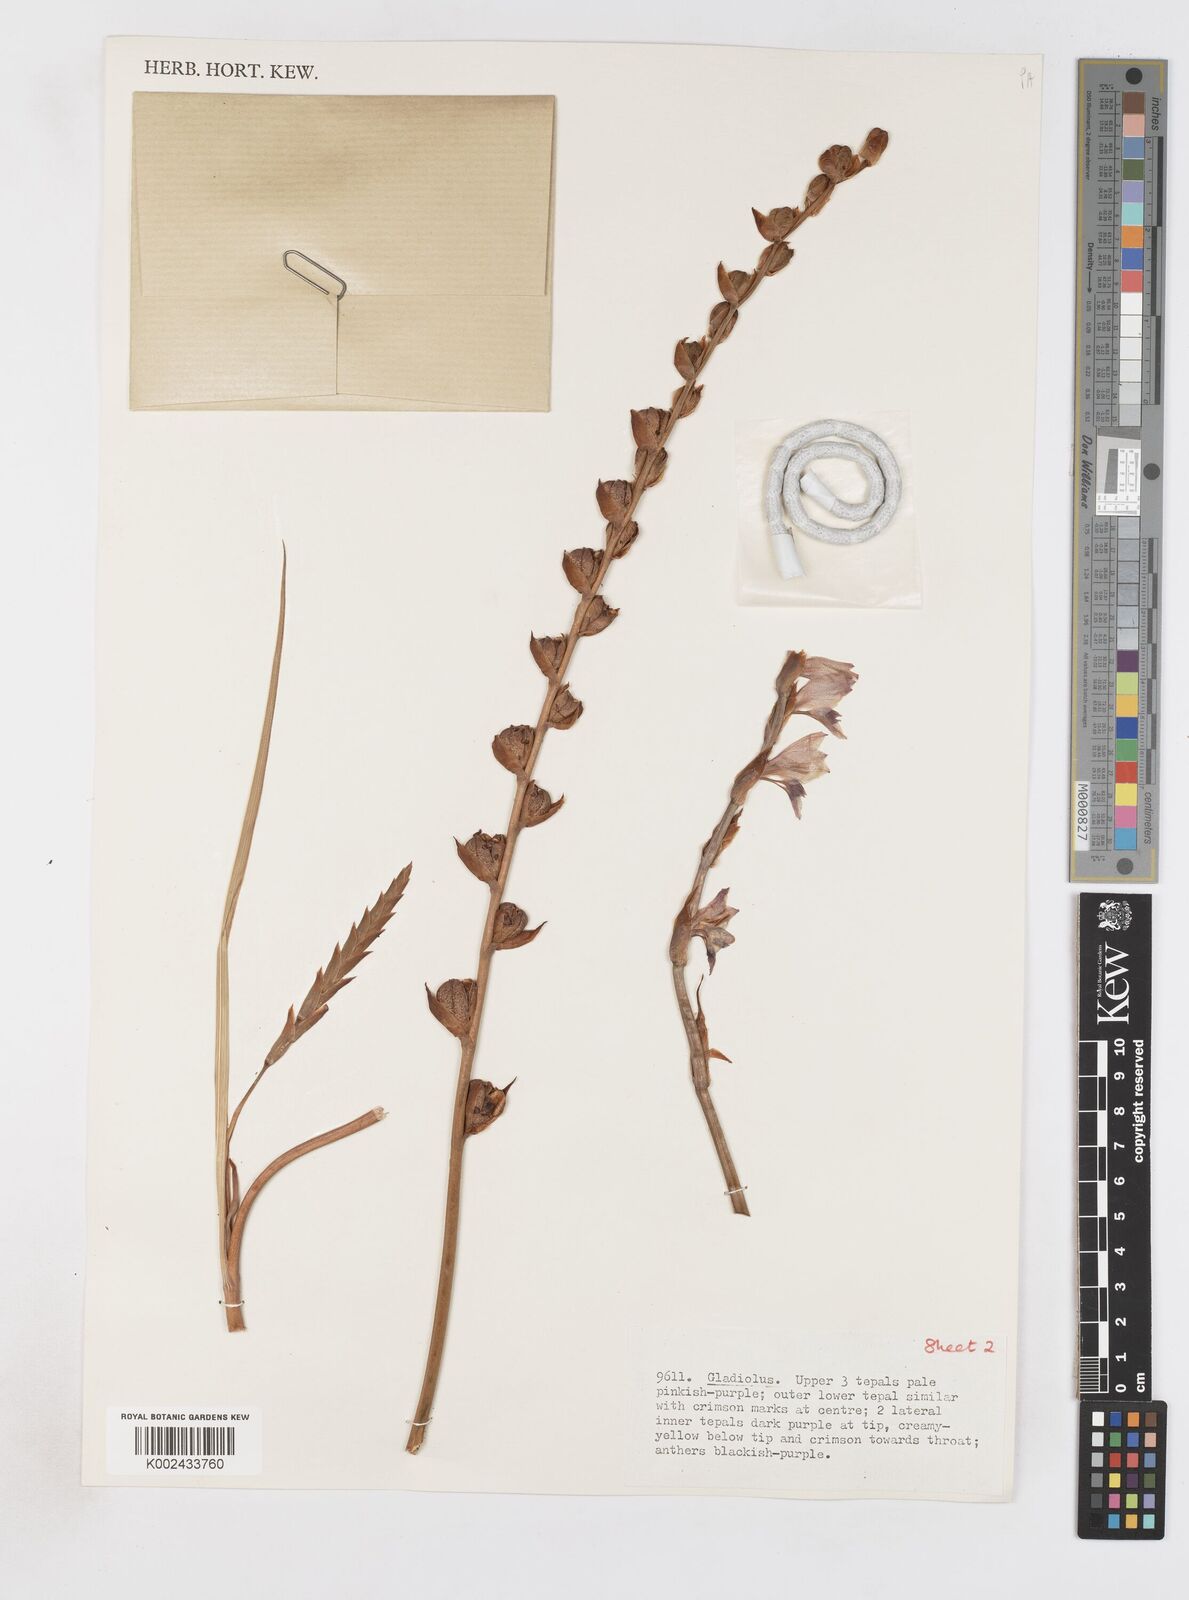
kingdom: Plantae
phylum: Tracheophyta
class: Liliopsida
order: Asparagales
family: Iridaceae
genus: Gladiolus
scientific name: Gladiolus crassifolius
